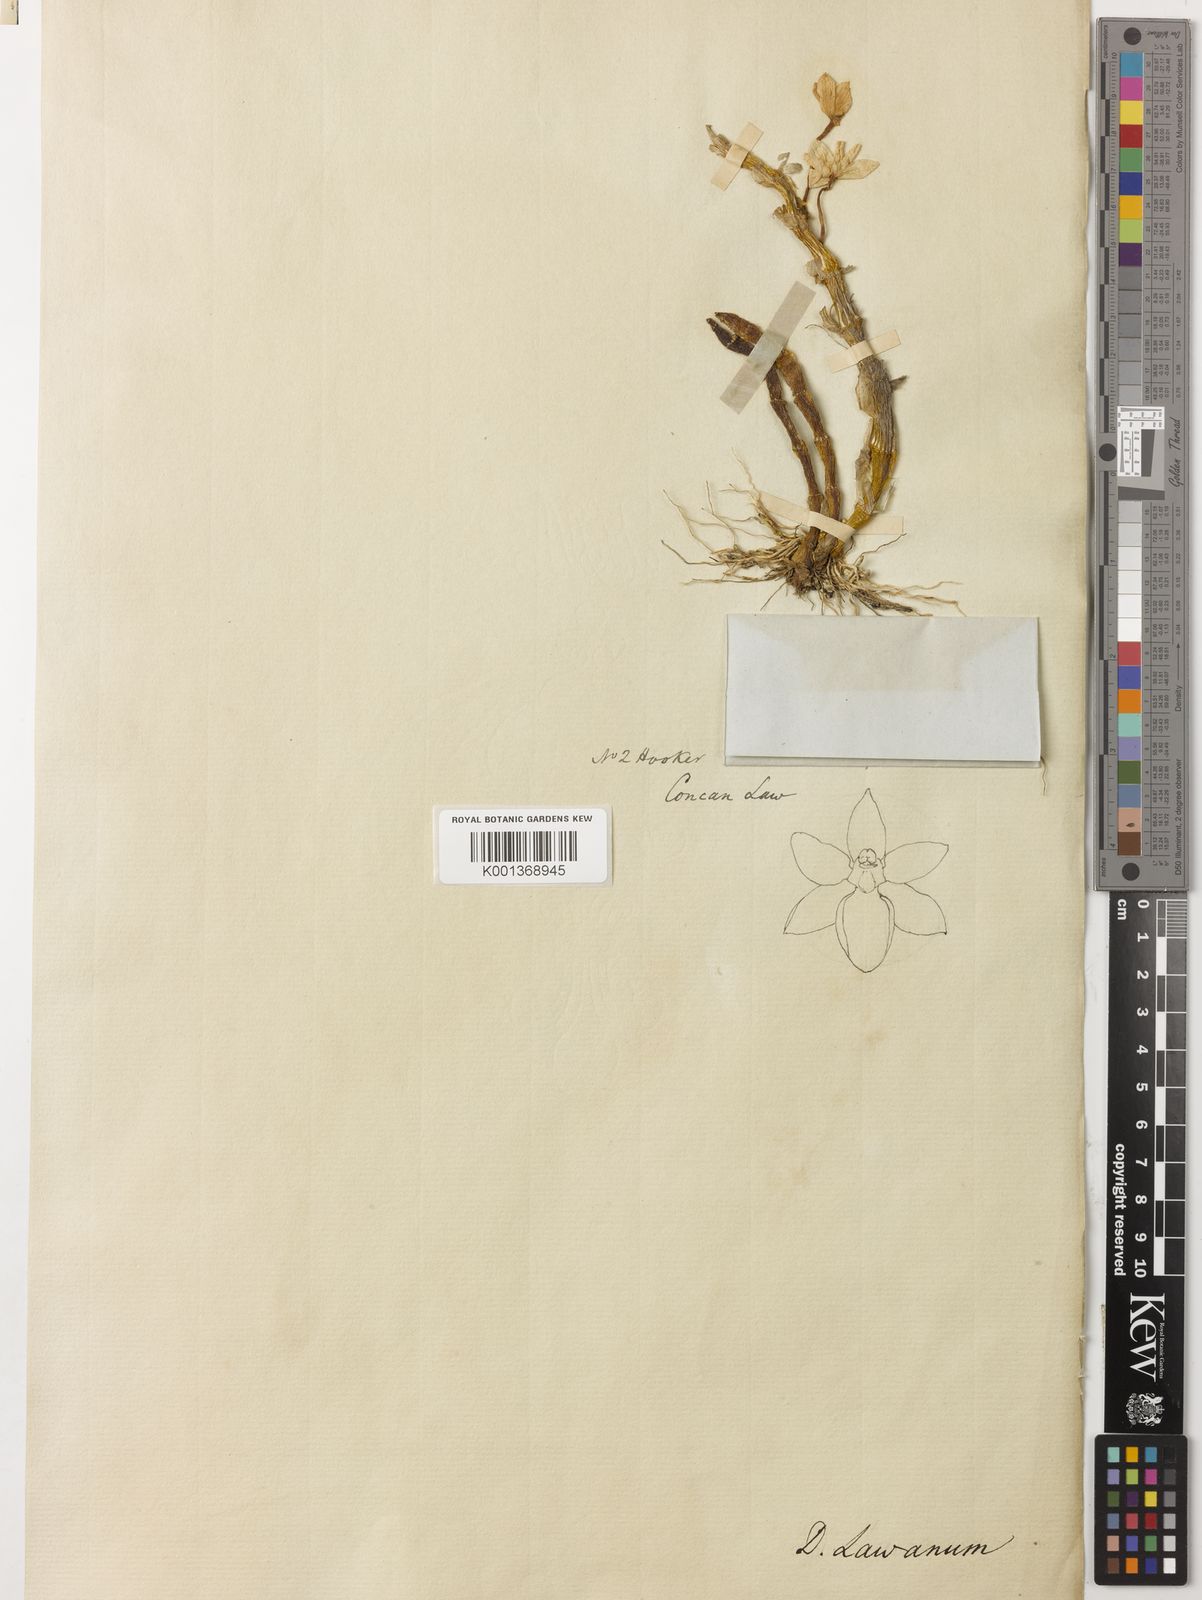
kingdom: Plantae
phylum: Tracheophyta
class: Liliopsida
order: Asparagales
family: Orchidaceae
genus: Dendrobium
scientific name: Dendrobium
